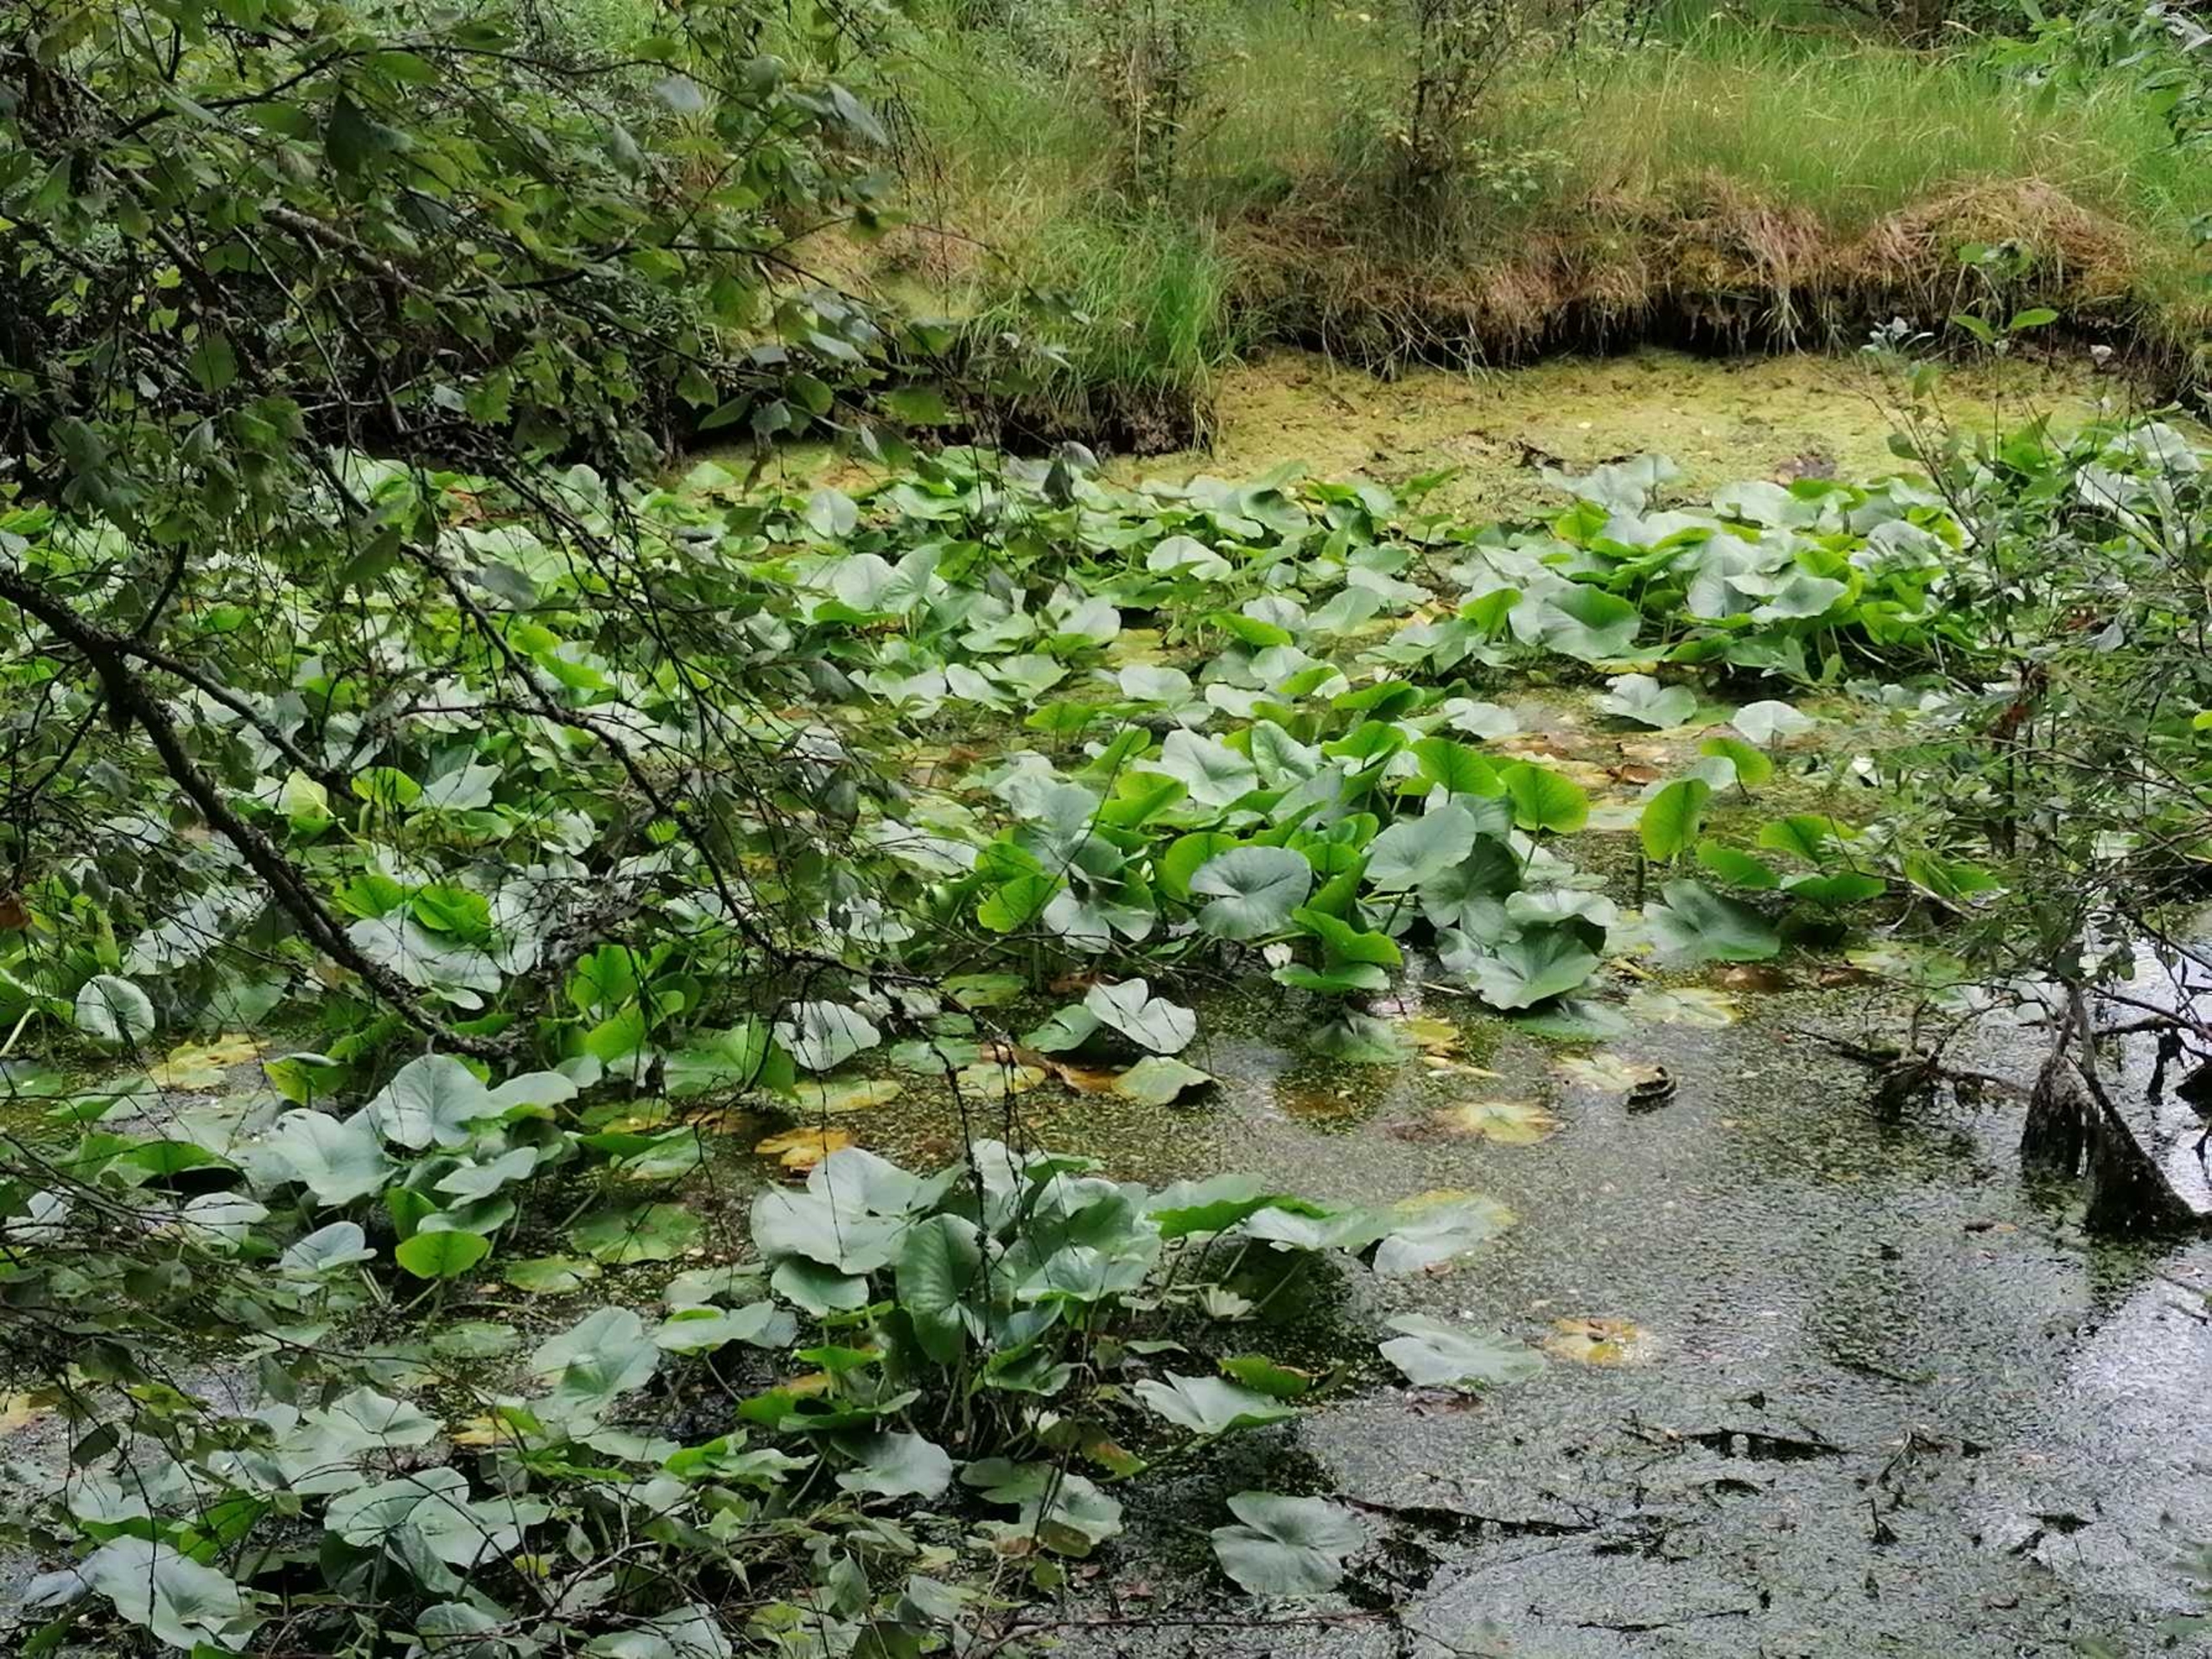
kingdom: Plantae
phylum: Tracheophyta
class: Magnoliopsida
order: Nymphaeales
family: Nymphaeaceae
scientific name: Nymphaeaceae
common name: Åkandefamilien
